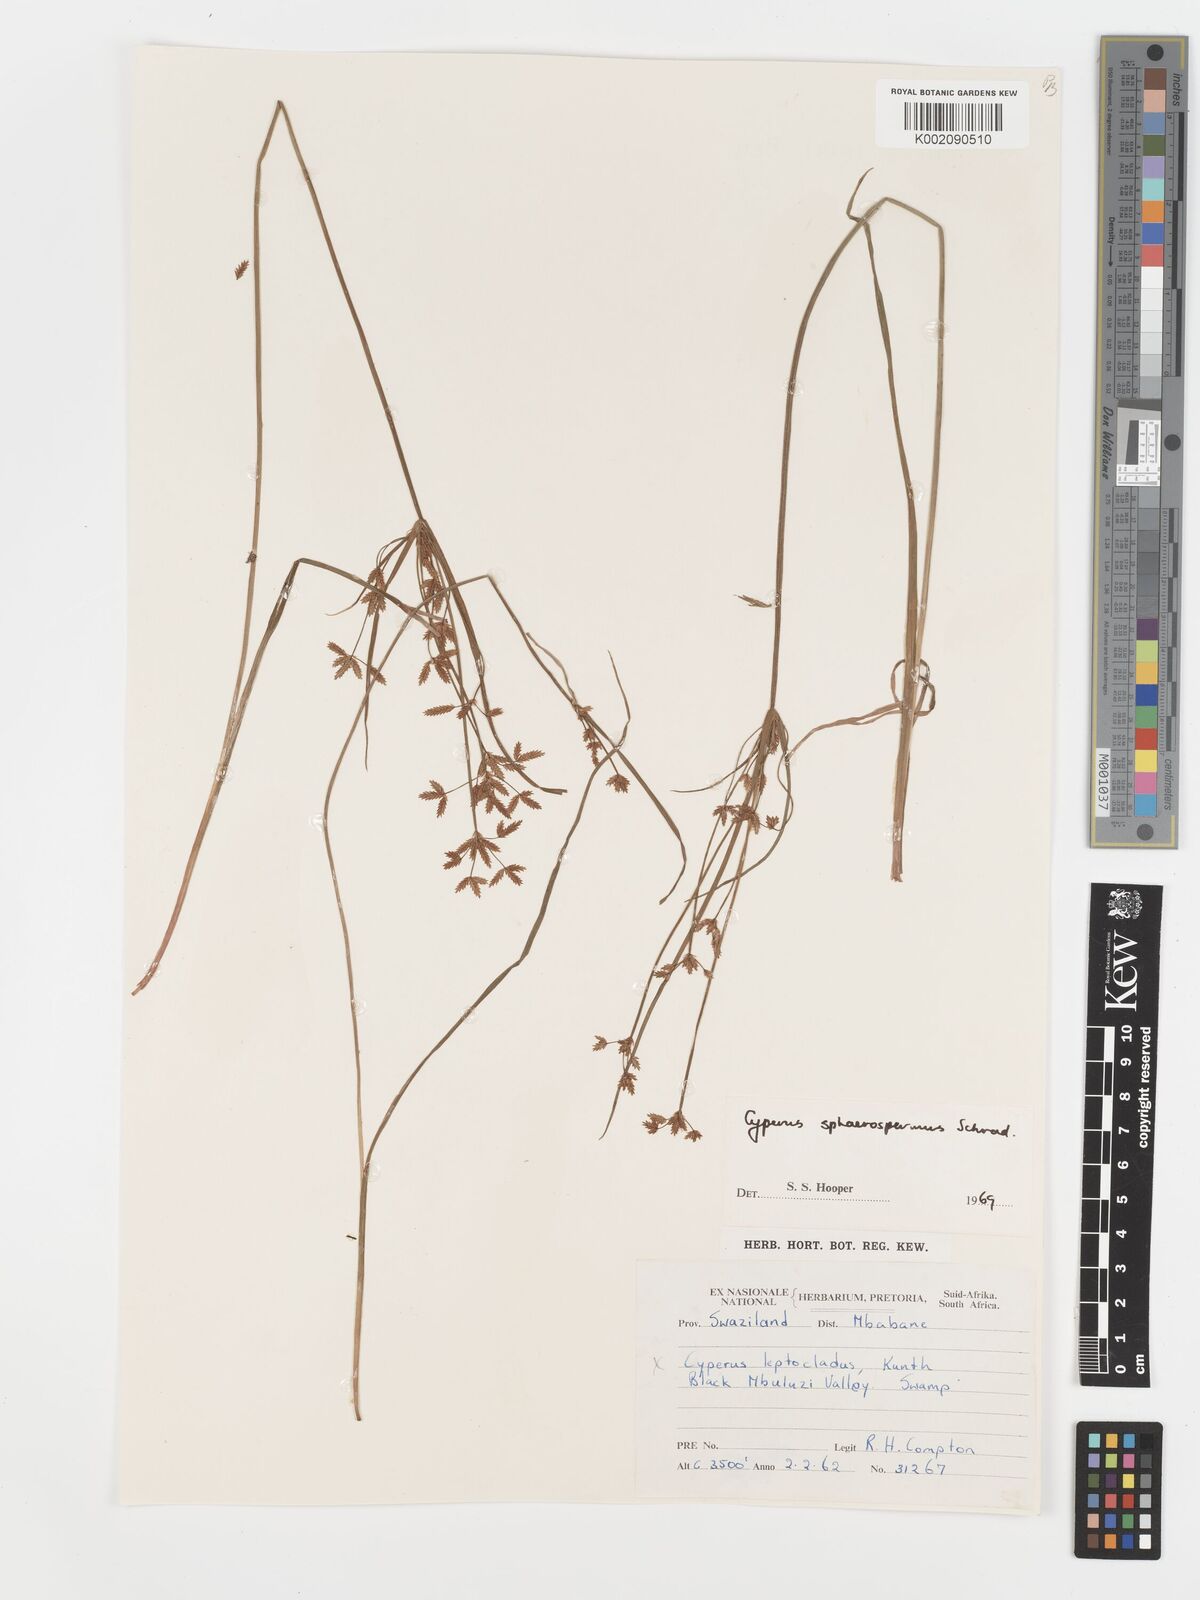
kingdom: Plantae
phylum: Tracheophyta
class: Liliopsida
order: Poales
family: Cyperaceae
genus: Cyperus
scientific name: Cyperus sphaerospermus
